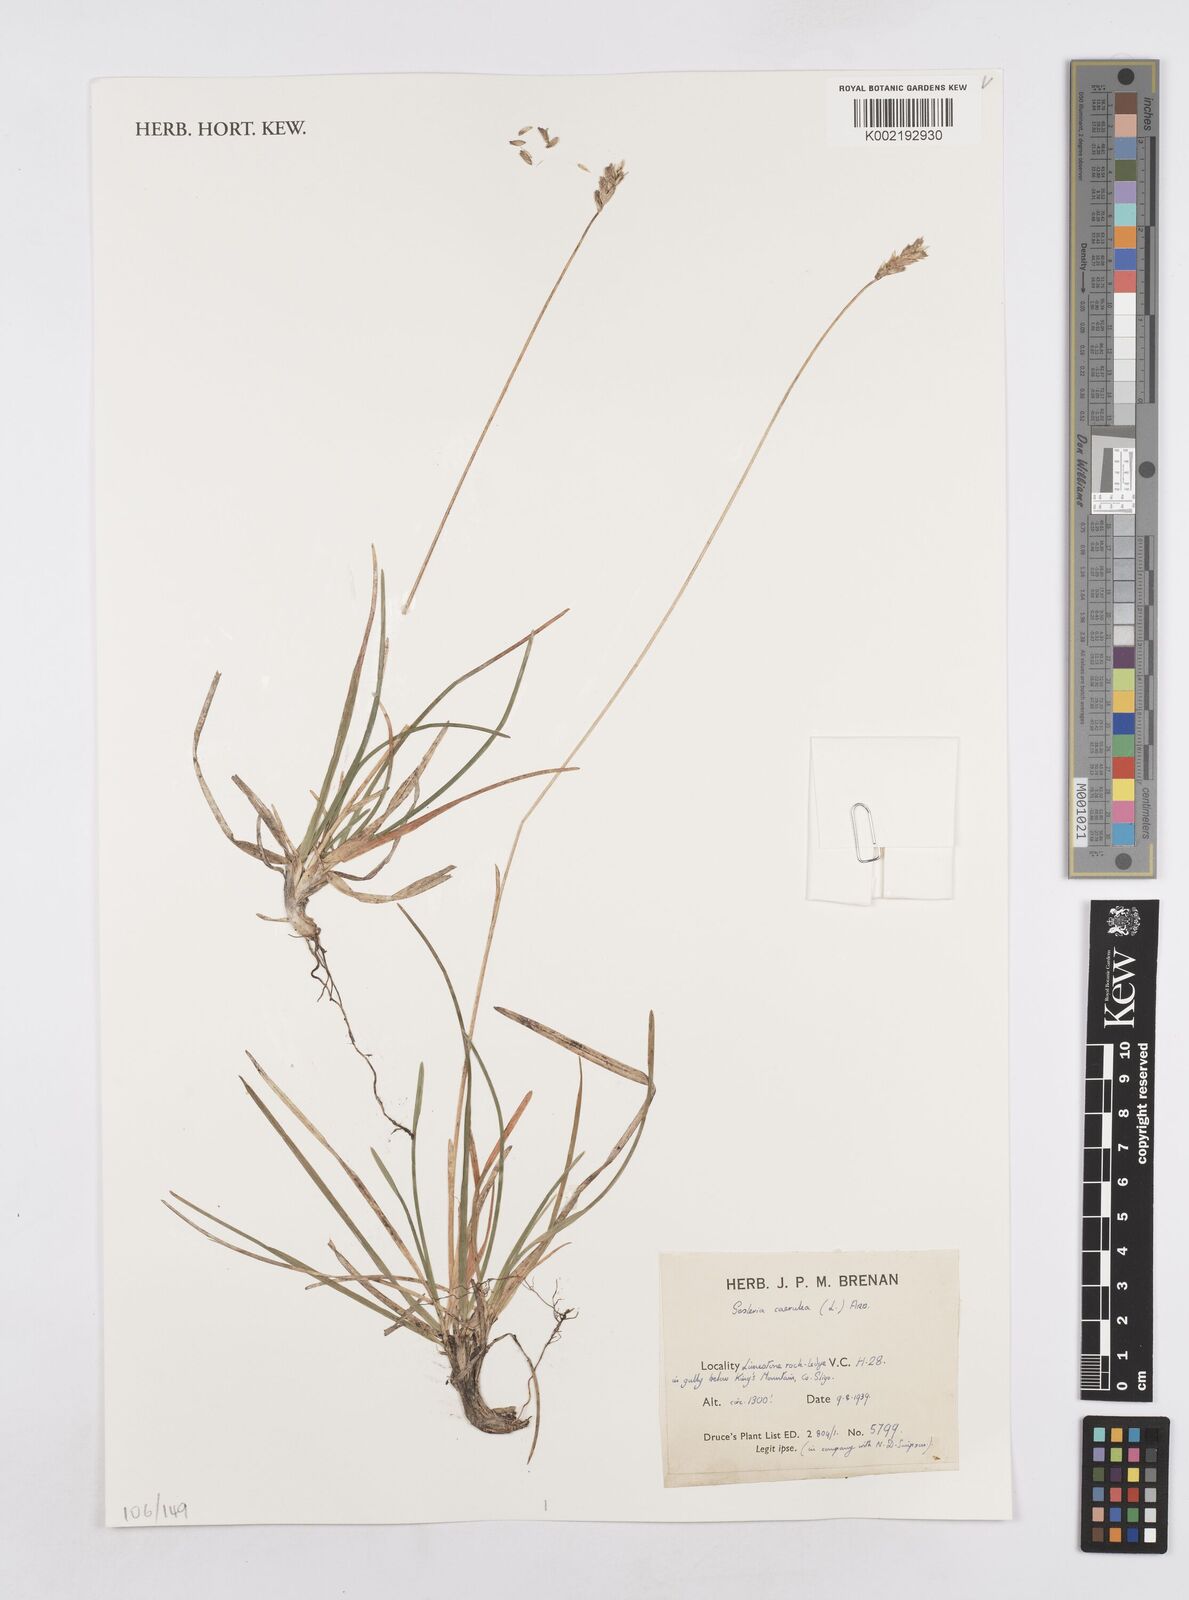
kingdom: Plantae
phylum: Tracheophyta
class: Liliopsida
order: Poales
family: Poaceae
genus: Sesleria
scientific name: Sesleria caerulea
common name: Blue moor-grass
